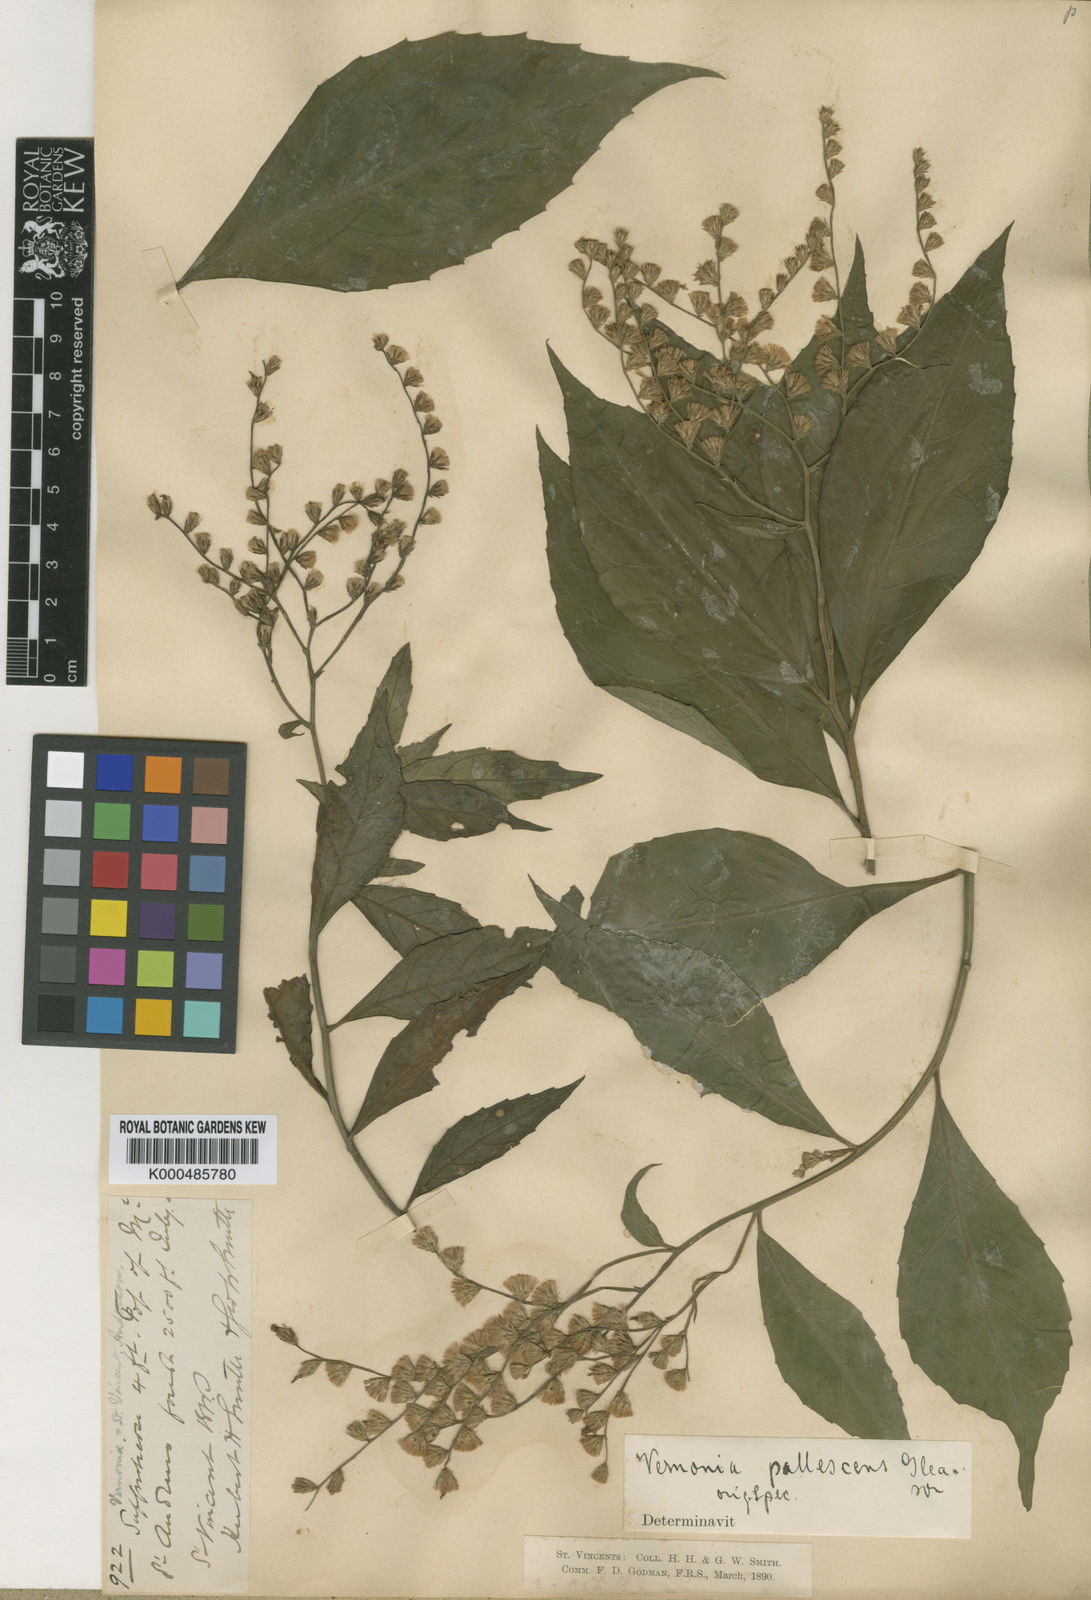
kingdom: Plantae
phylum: Tracheophyta
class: Magnoliopsida
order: Asterales
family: Asteraceae
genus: Lepidaploa
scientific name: Lepidaploa pallescens
